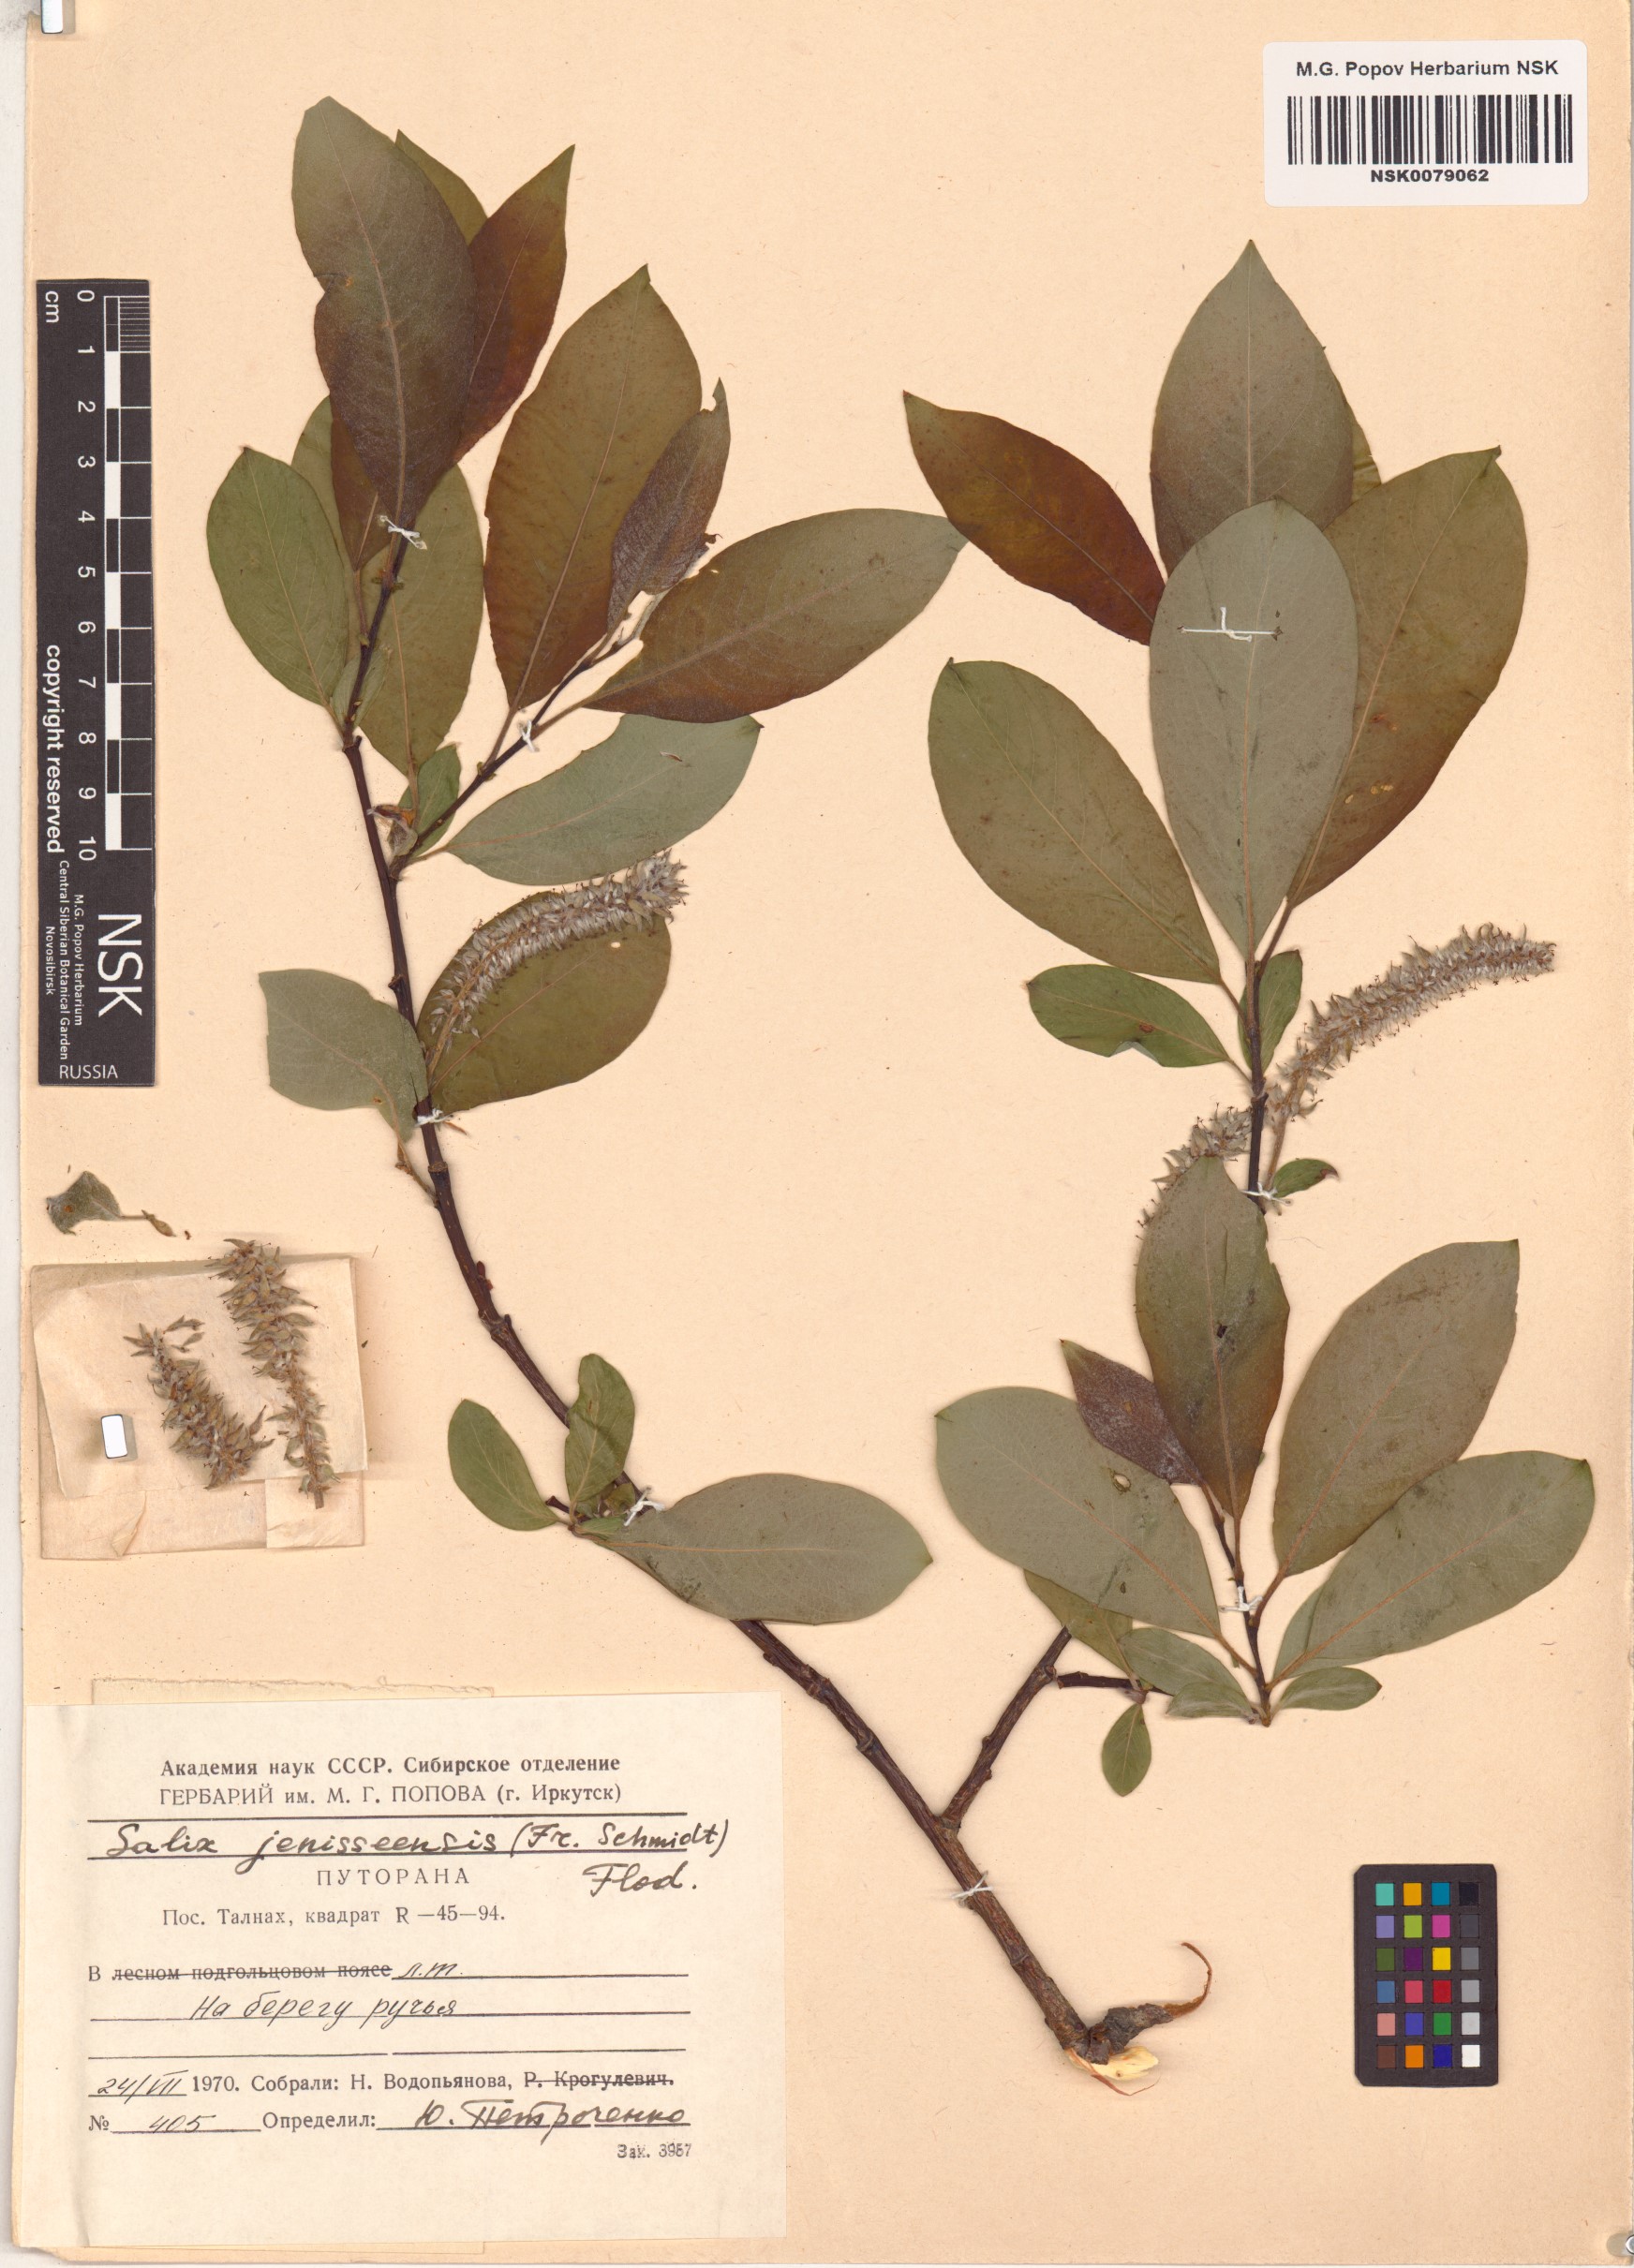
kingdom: Plantae
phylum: Tracheophyta
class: Magnoliopsida
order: Malpighiales
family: Salicaceae
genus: Salix
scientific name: Salix jenisseensis
